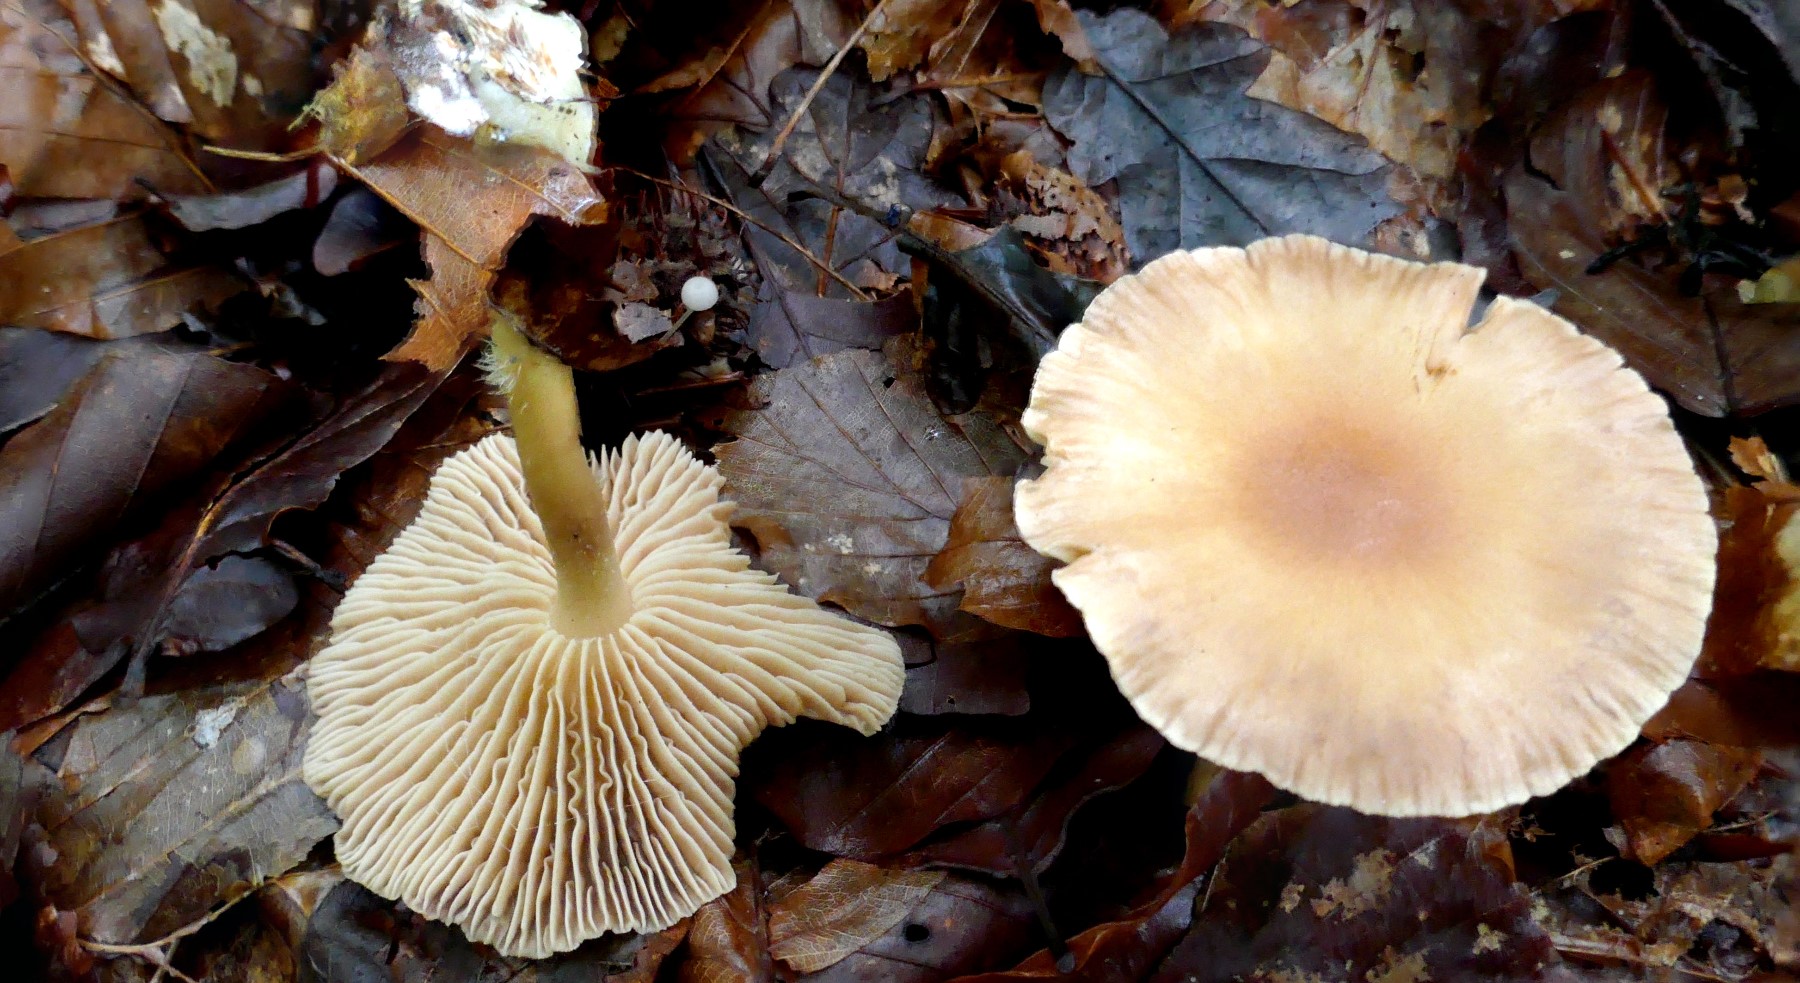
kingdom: Fungi
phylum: Basidiomycota
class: Agaricomycetes
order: Agaricales
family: Omphalotaceae
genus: Collybiopsis
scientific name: Collybiopsis peronata
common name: bestøvlet fladhat
